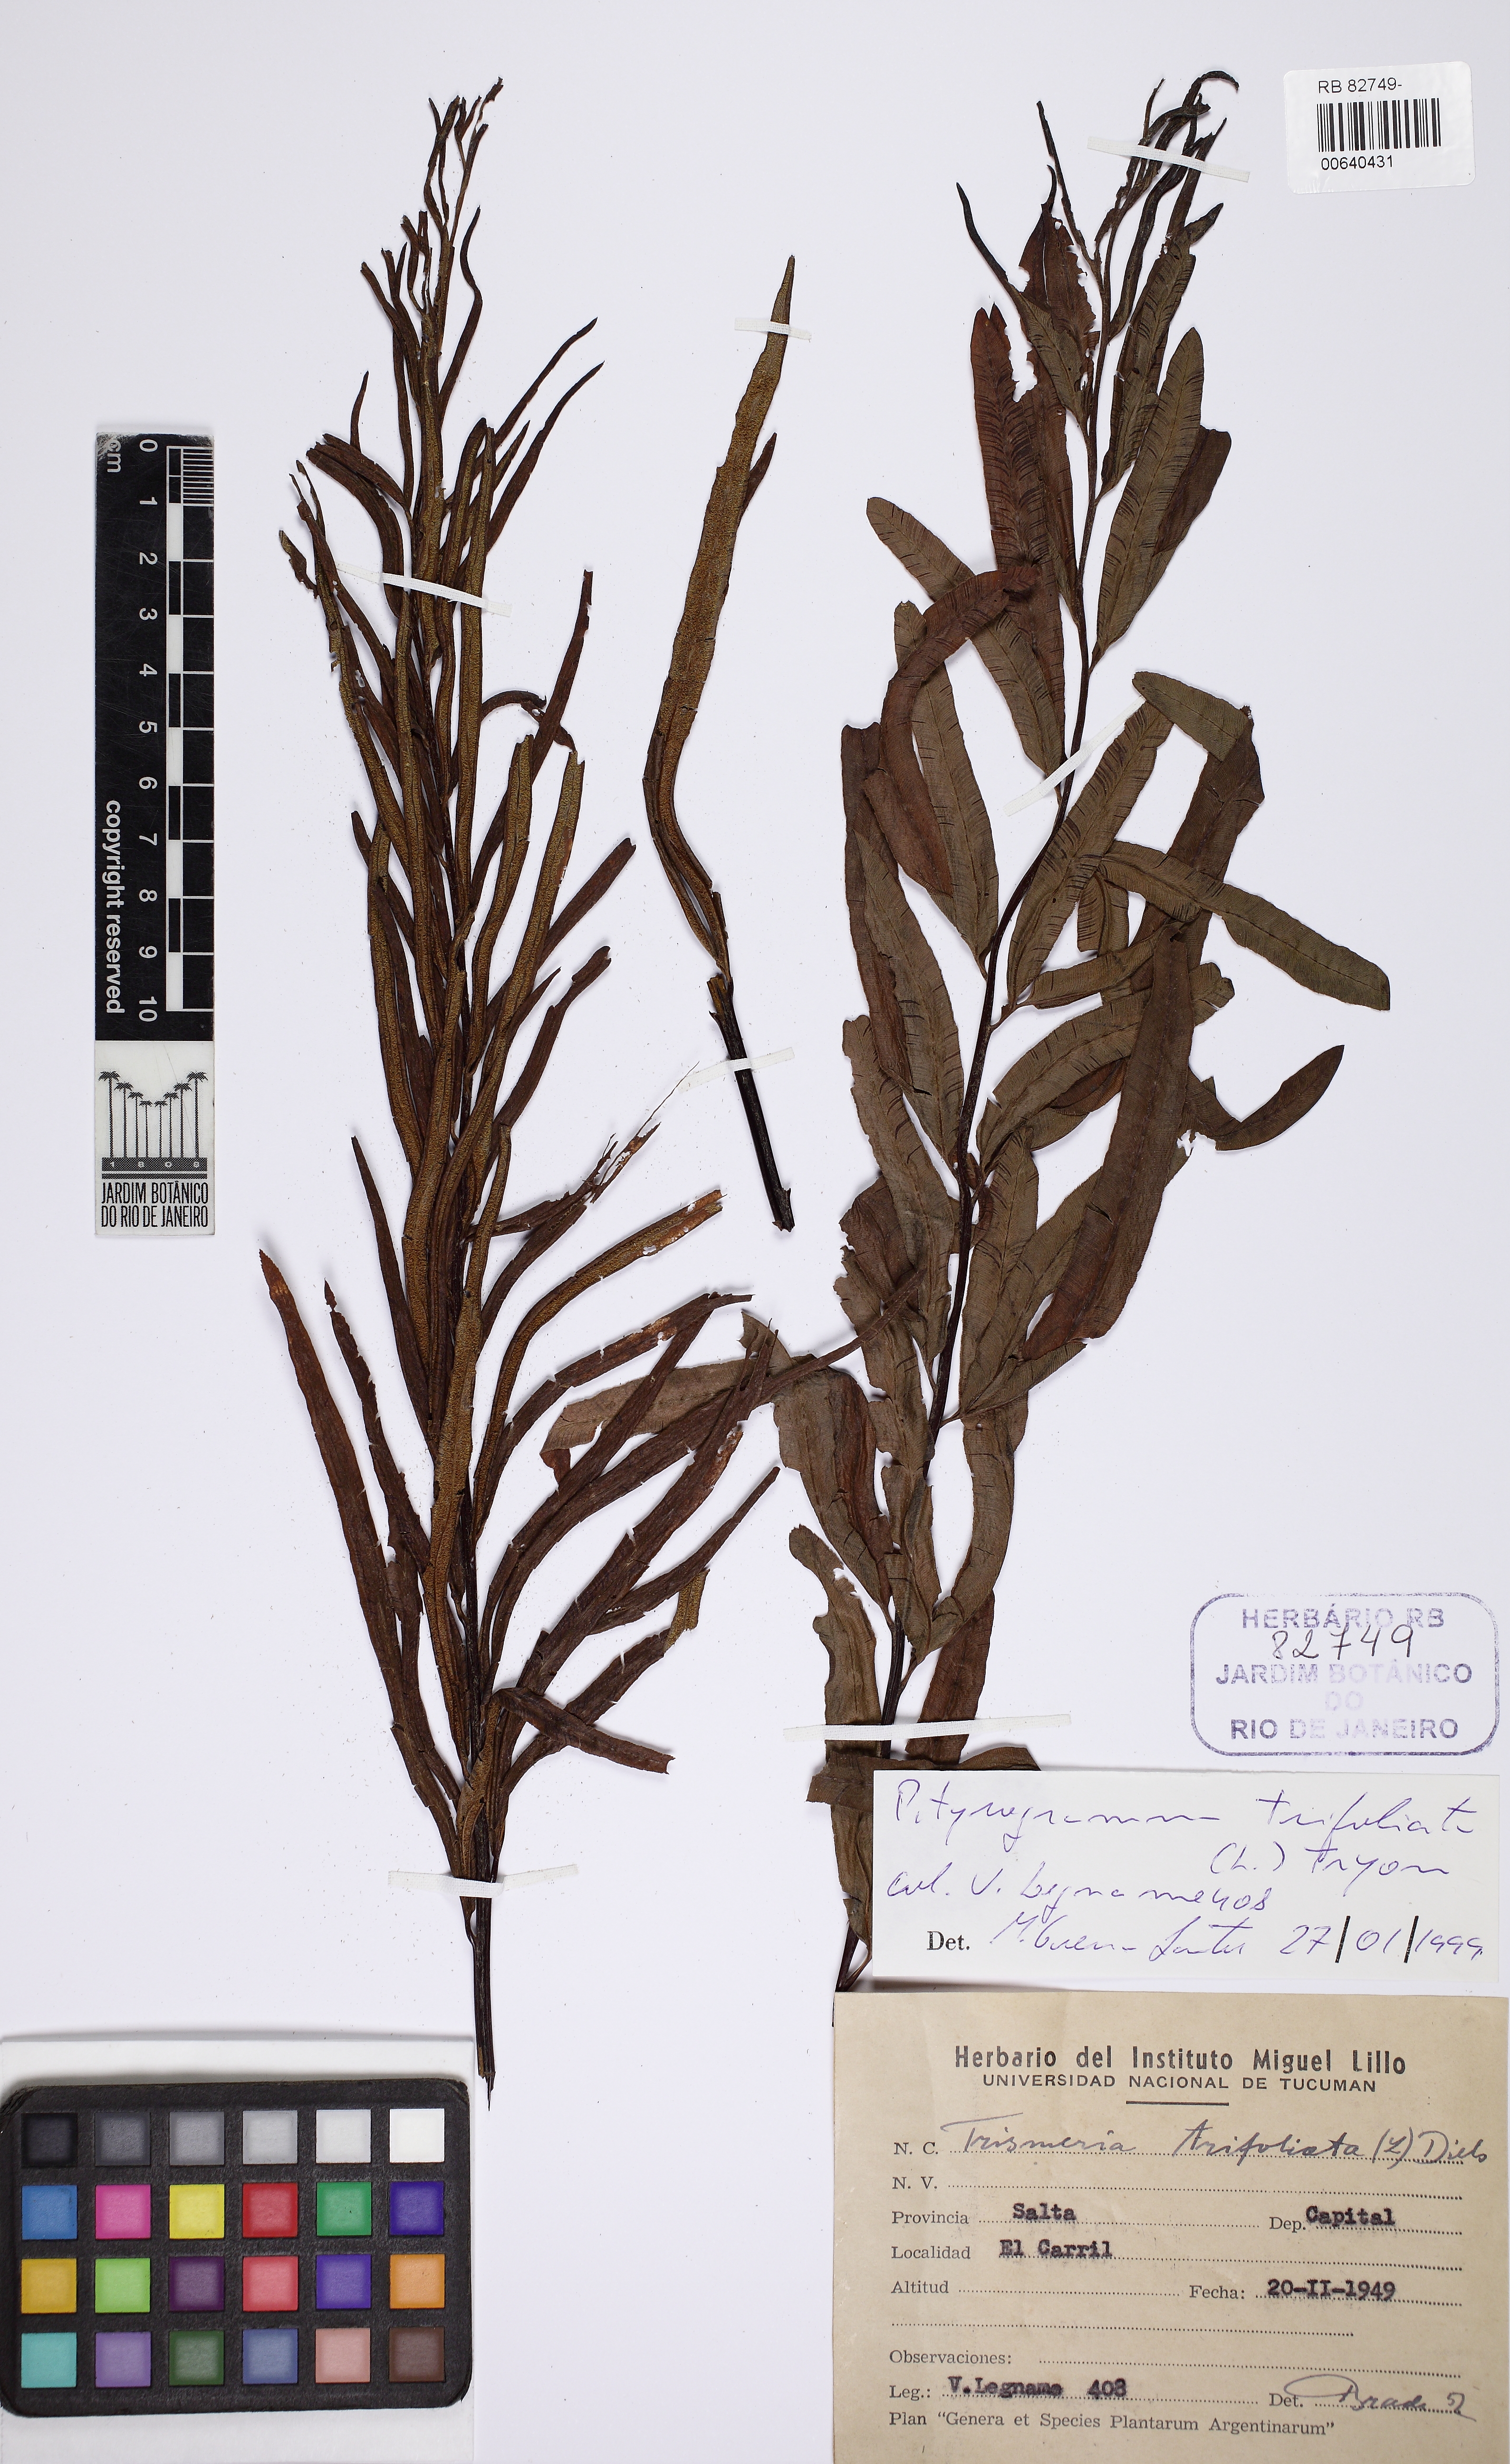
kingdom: Plantae
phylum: Tracheophyta
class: Polypodiopsida
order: Polypodiales
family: Pteridaceae
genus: Pityrogramma
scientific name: Pityrogramma trifoliata
